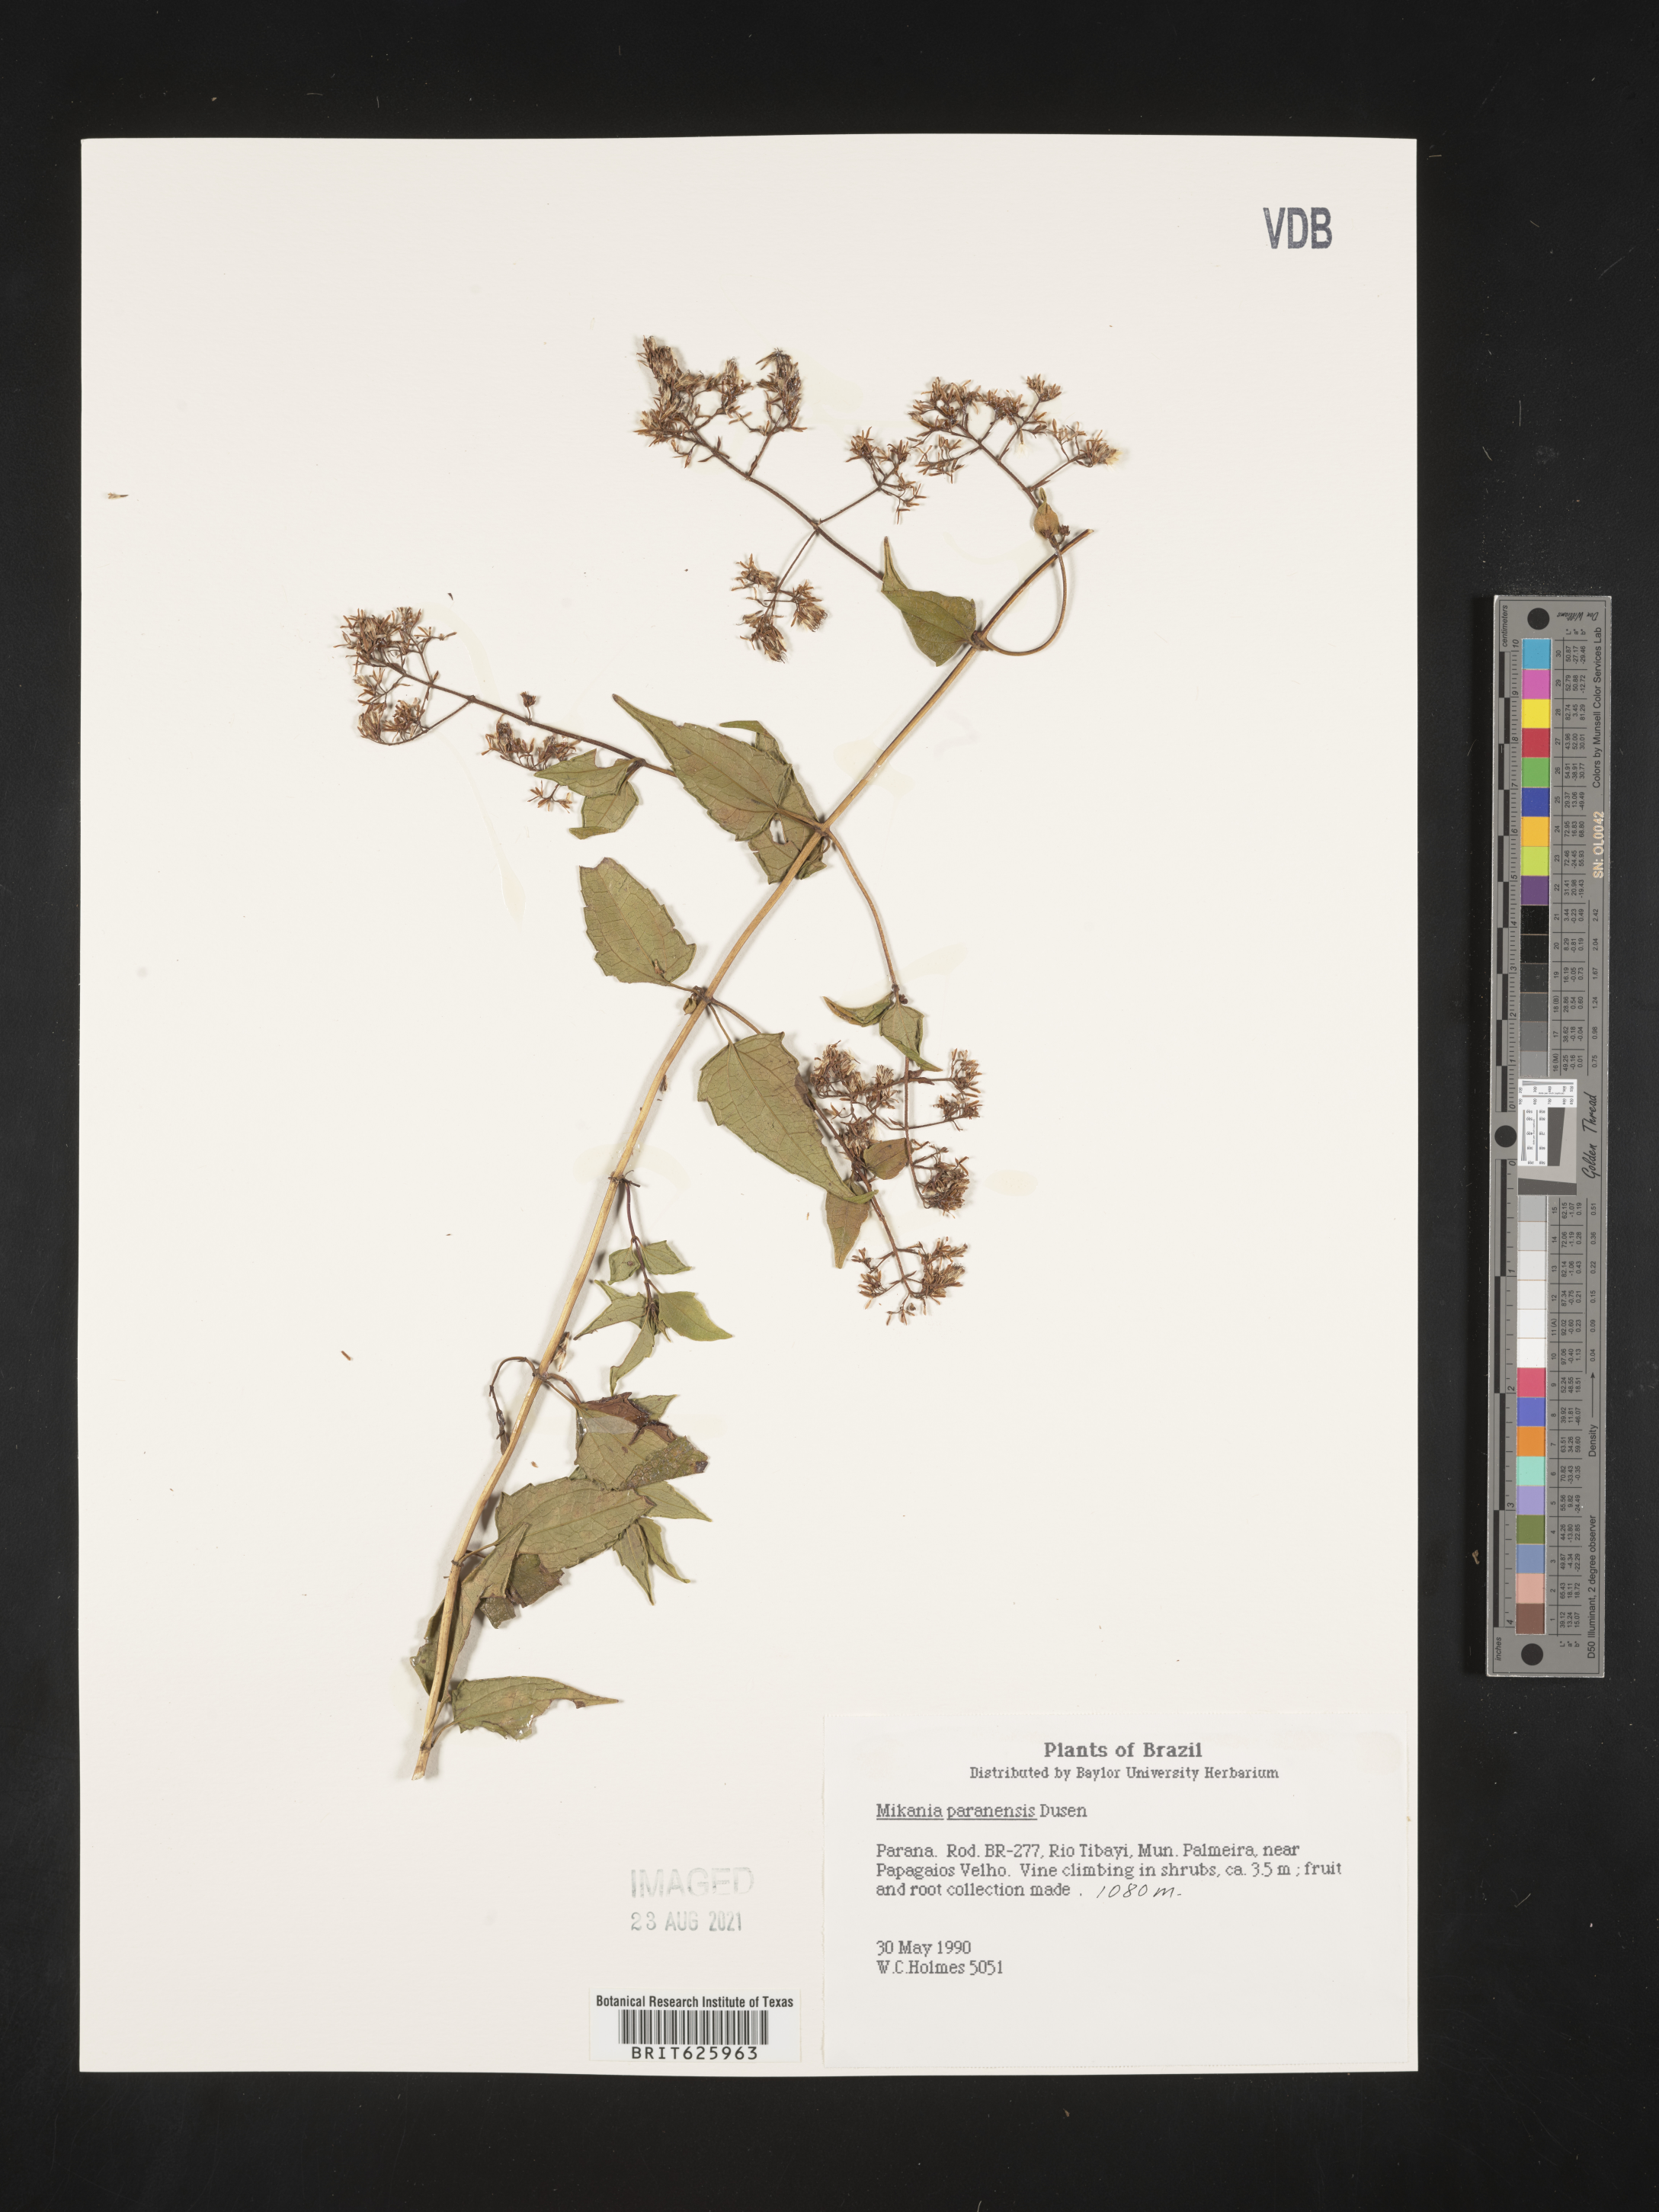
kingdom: Plantae
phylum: Tracheophyta
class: Magnoliopsida
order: Asterales
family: Asteraceae
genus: Mikania
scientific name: Mikania paranensis
